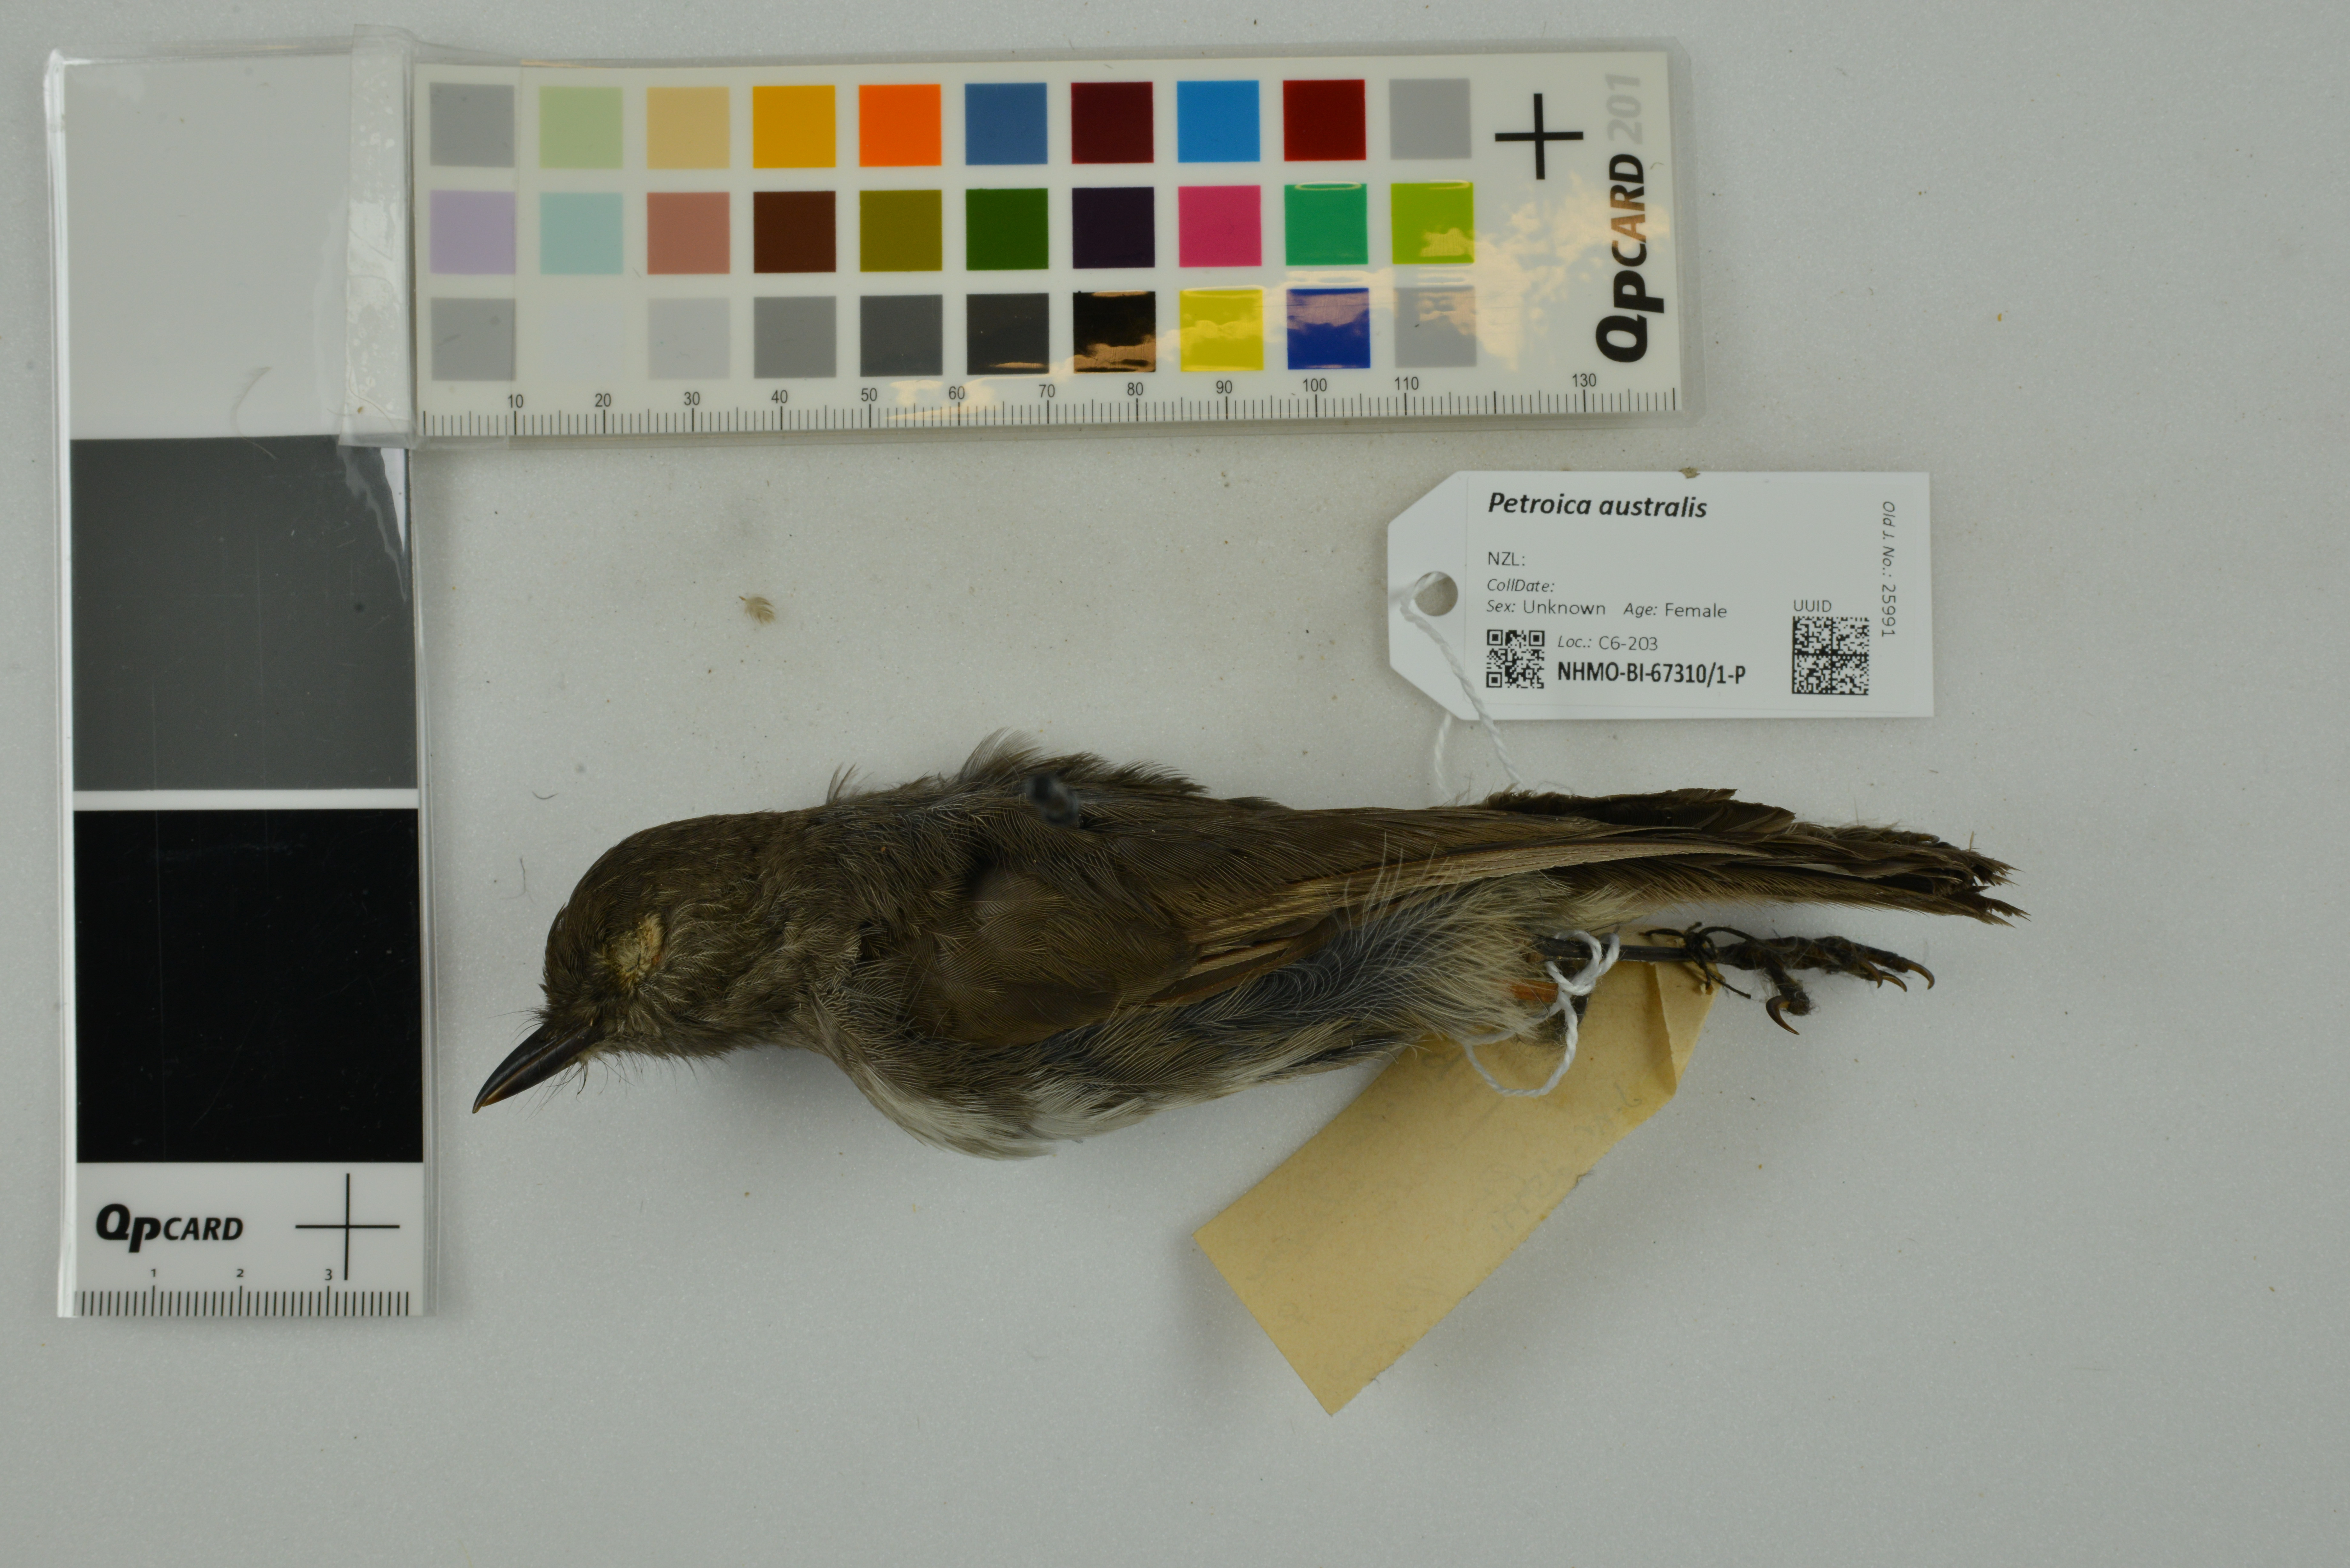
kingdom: Animalia
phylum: Chordata
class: Aves
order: Passeriformes
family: Petroicidae
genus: Petroica
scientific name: Petroica australis
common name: New zealand robin
